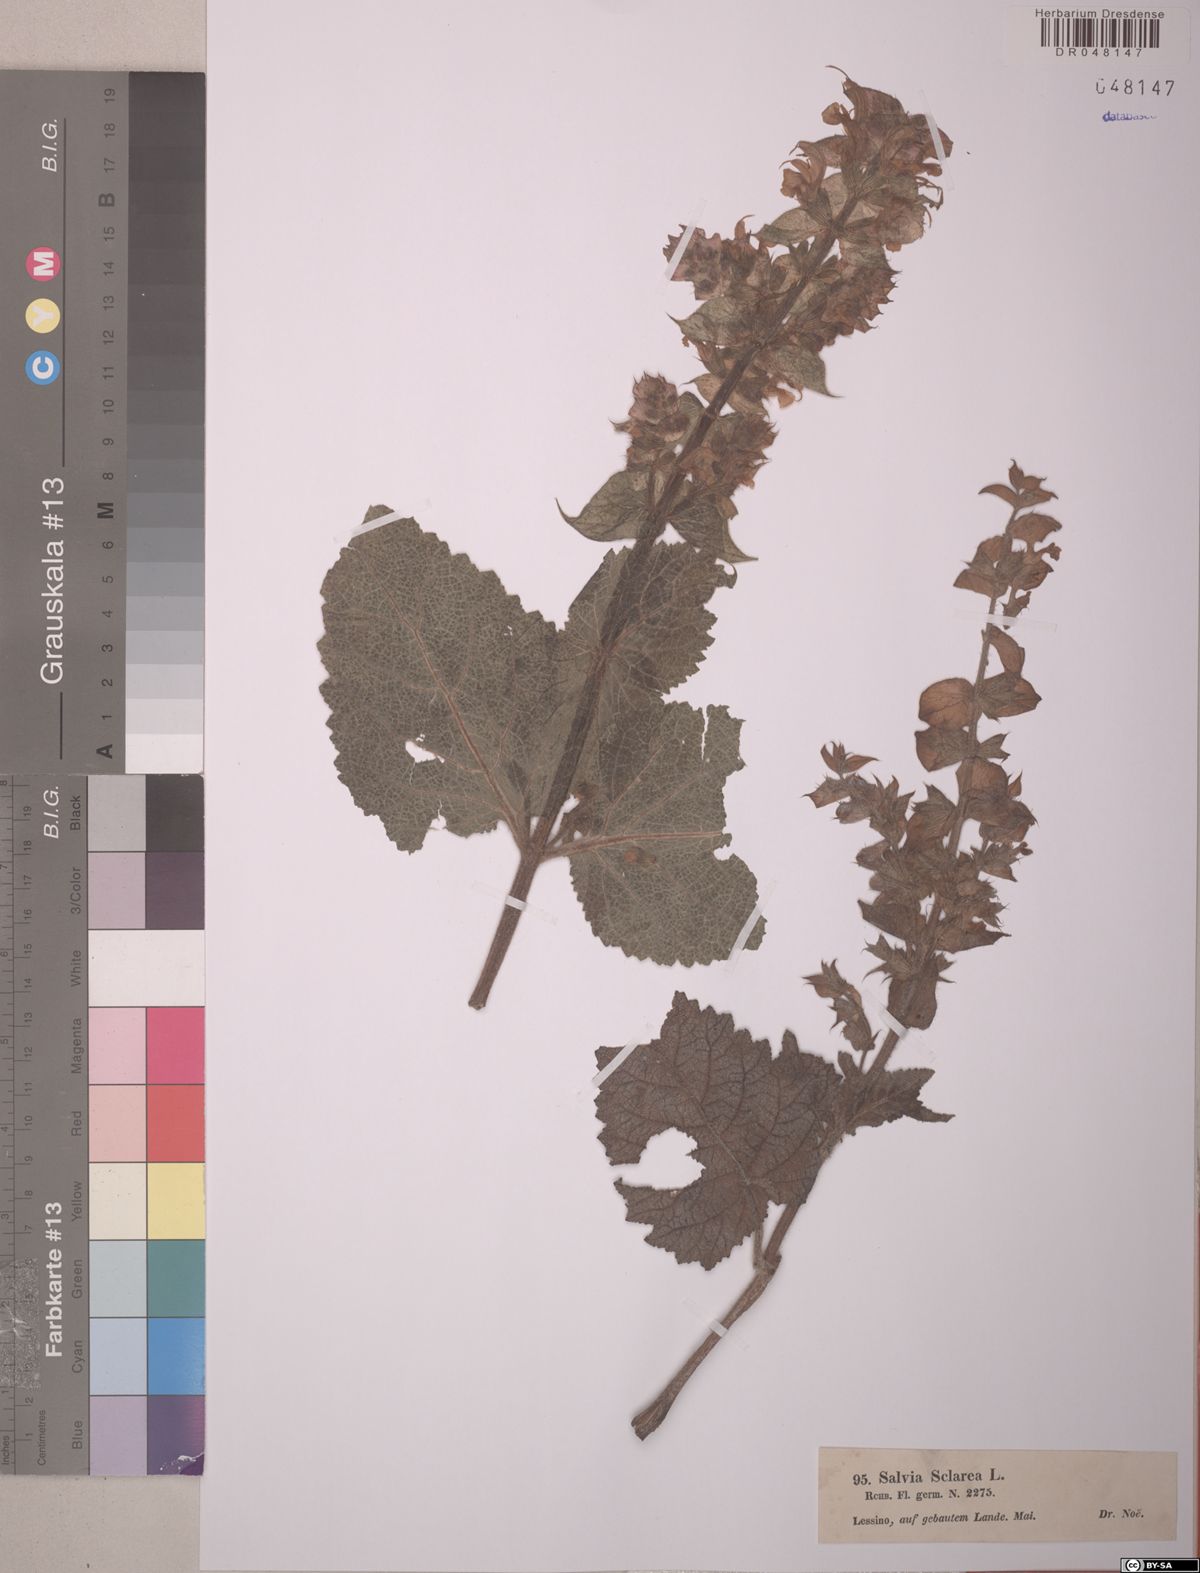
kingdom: Plantae
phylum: Tracheophyta
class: Magnoliopsida
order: Lamiales
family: Lamiaceae
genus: Salvia
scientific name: Salvia sclarea
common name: Clary
